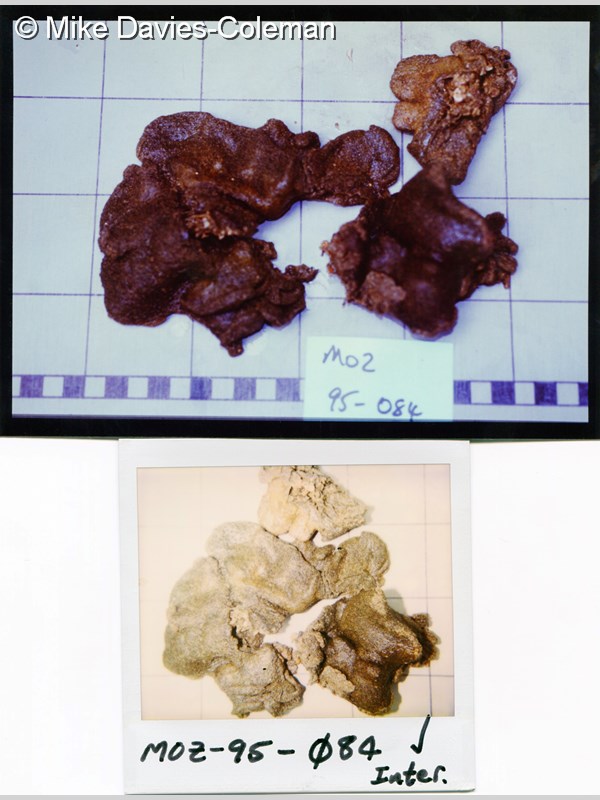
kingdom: Animalia
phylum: Chordata
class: Ascidiacea
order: Aplousobranchia
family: Polyclinidae
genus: Polyclinum
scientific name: Polyclinum isipingense
